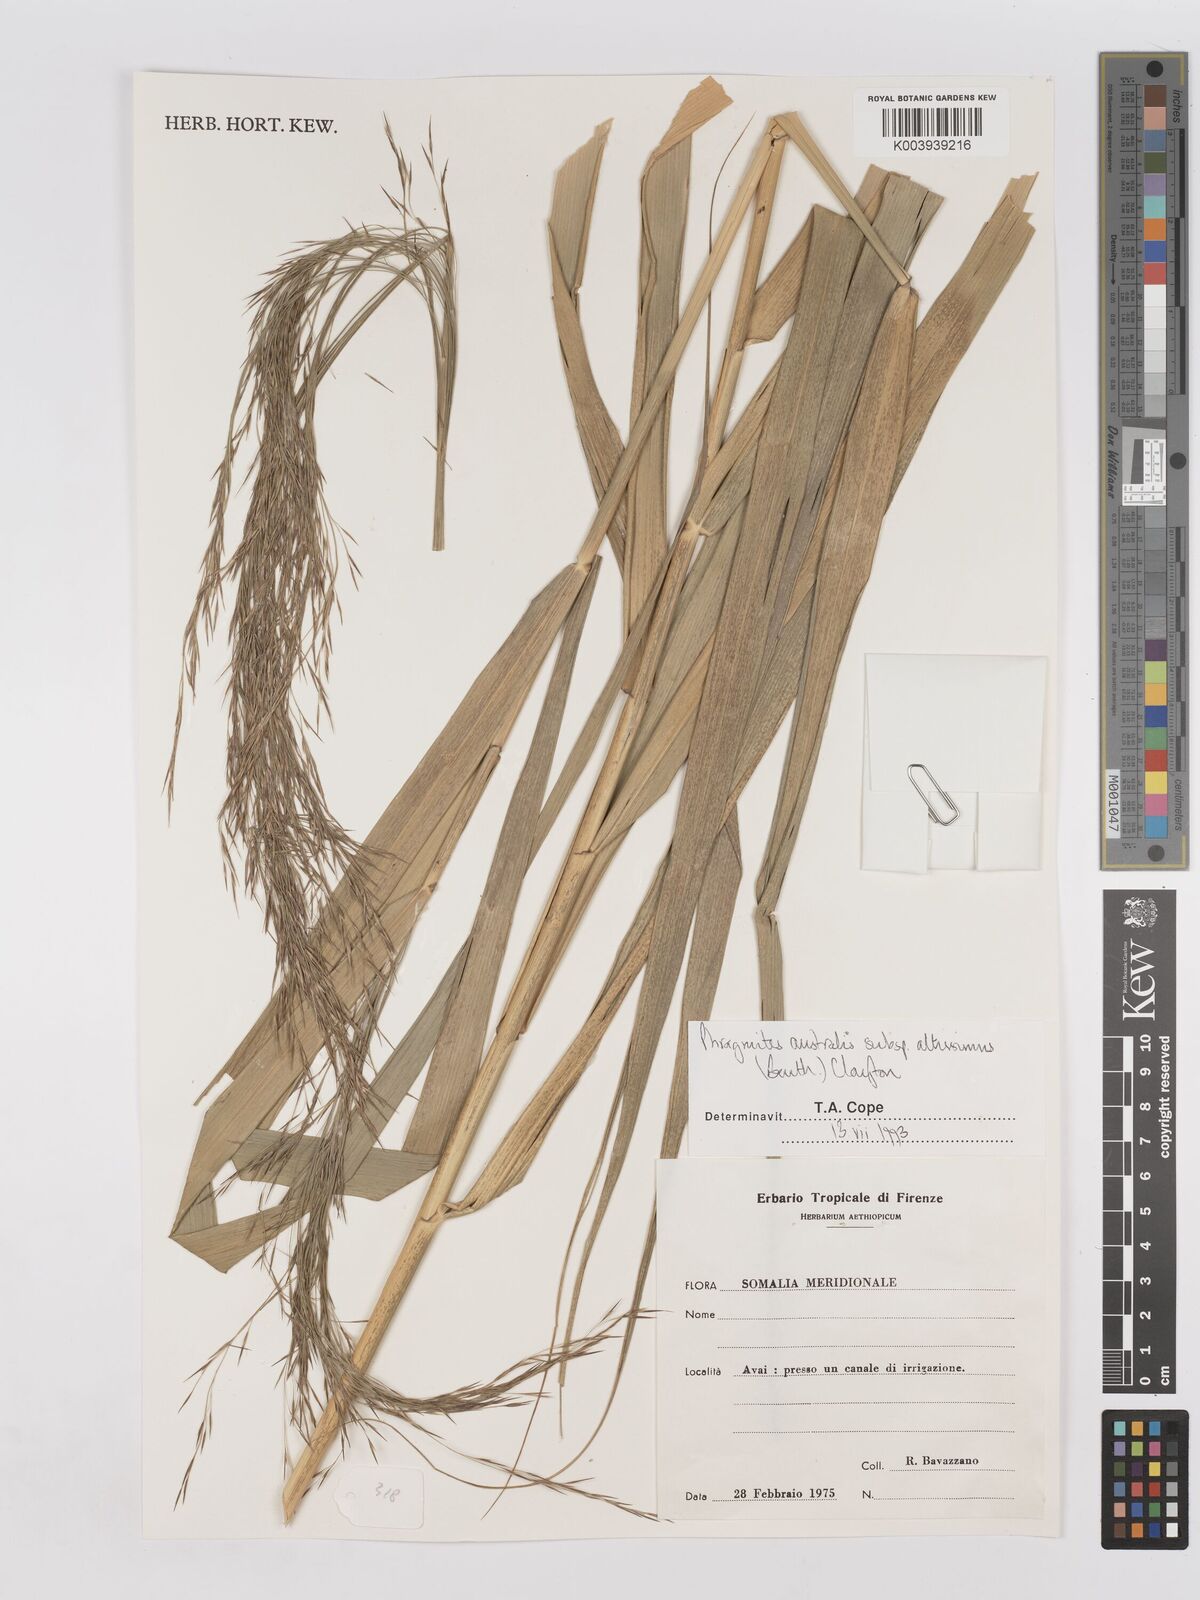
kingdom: Plantae
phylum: Tracheophyta
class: Liliopsida
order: Poales
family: Poaceae
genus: Phragmites
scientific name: Phragmites australis
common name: Common reed
